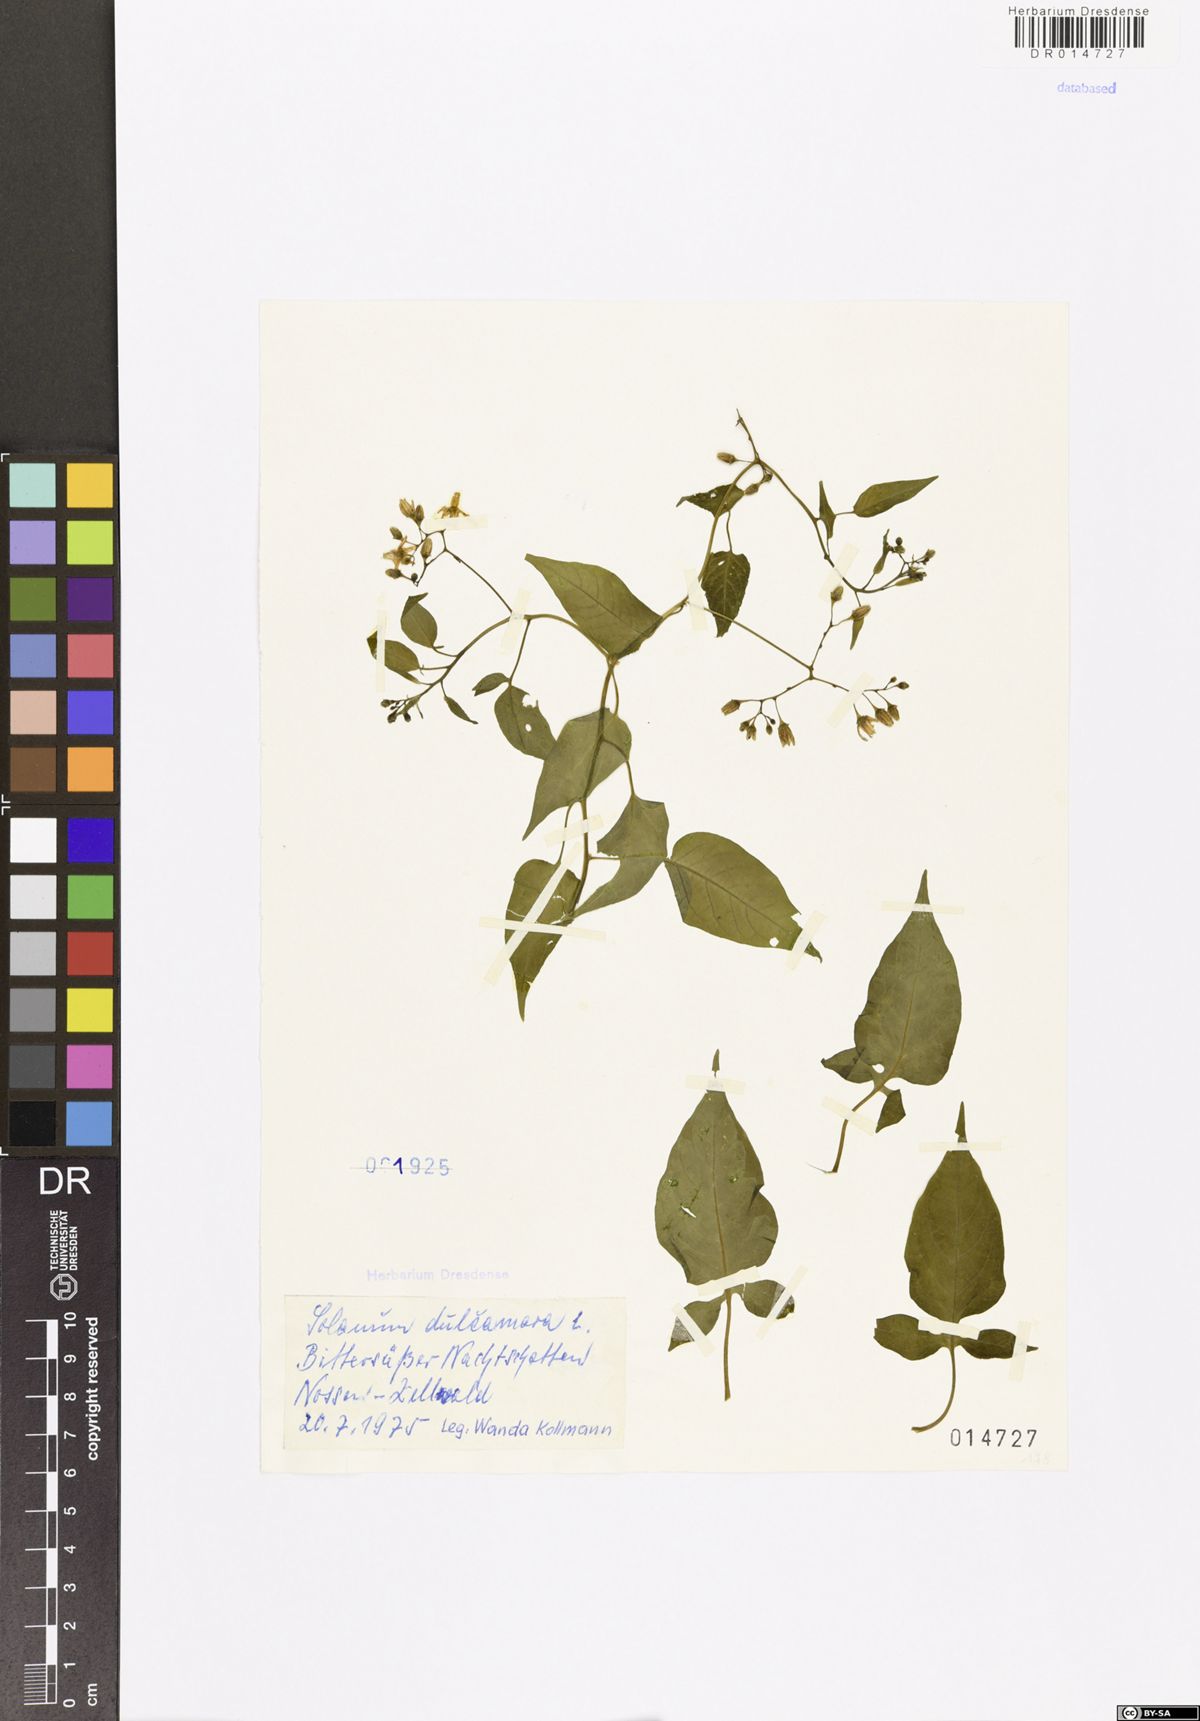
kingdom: Plantae
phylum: Tracheophyta
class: Magnoliopsida
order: Solanales
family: Solanaceae
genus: Solanum
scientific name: Solanum dulcamara
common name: Climbing nightshade
